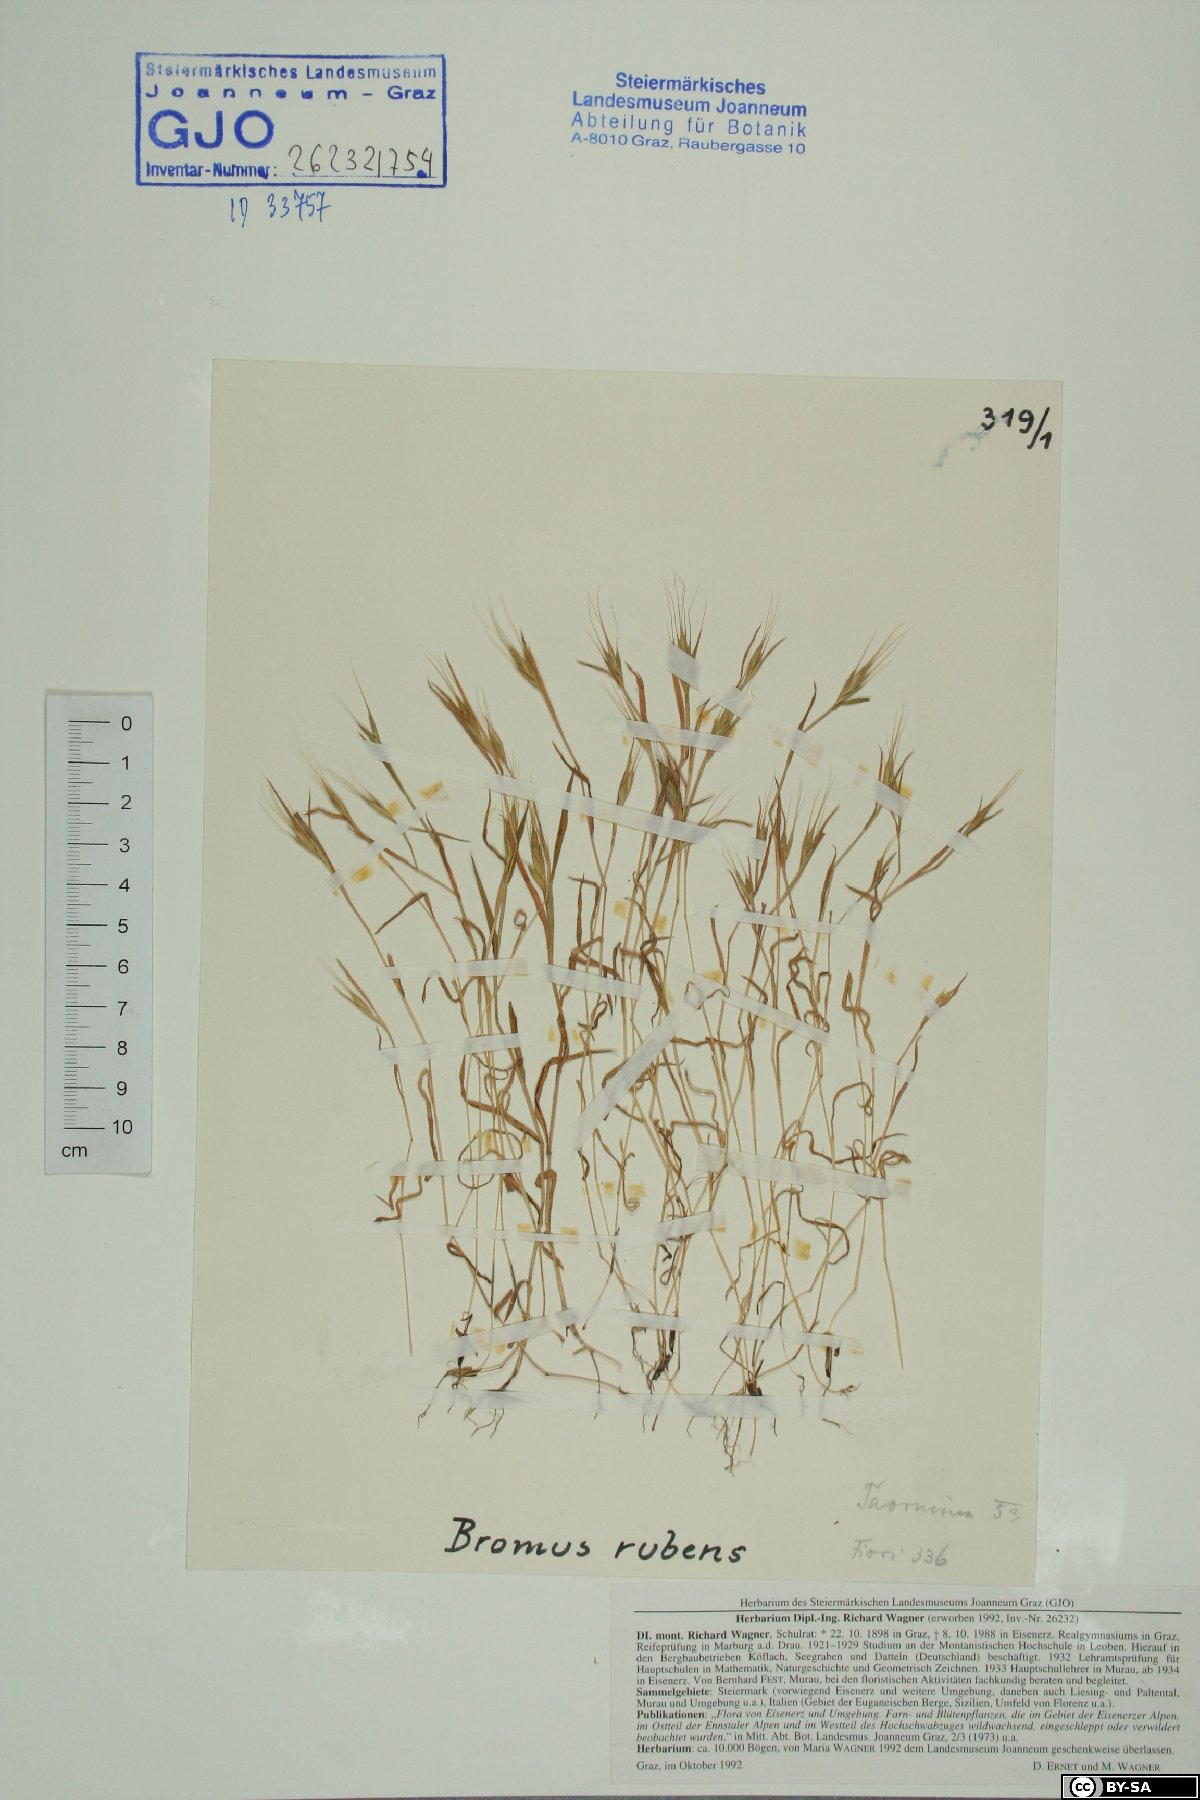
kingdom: Plantae
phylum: Tracheophyta
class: Liliopsida
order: Poales
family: Poaceae
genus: Bromus
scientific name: Bromus rubens
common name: Red brome
